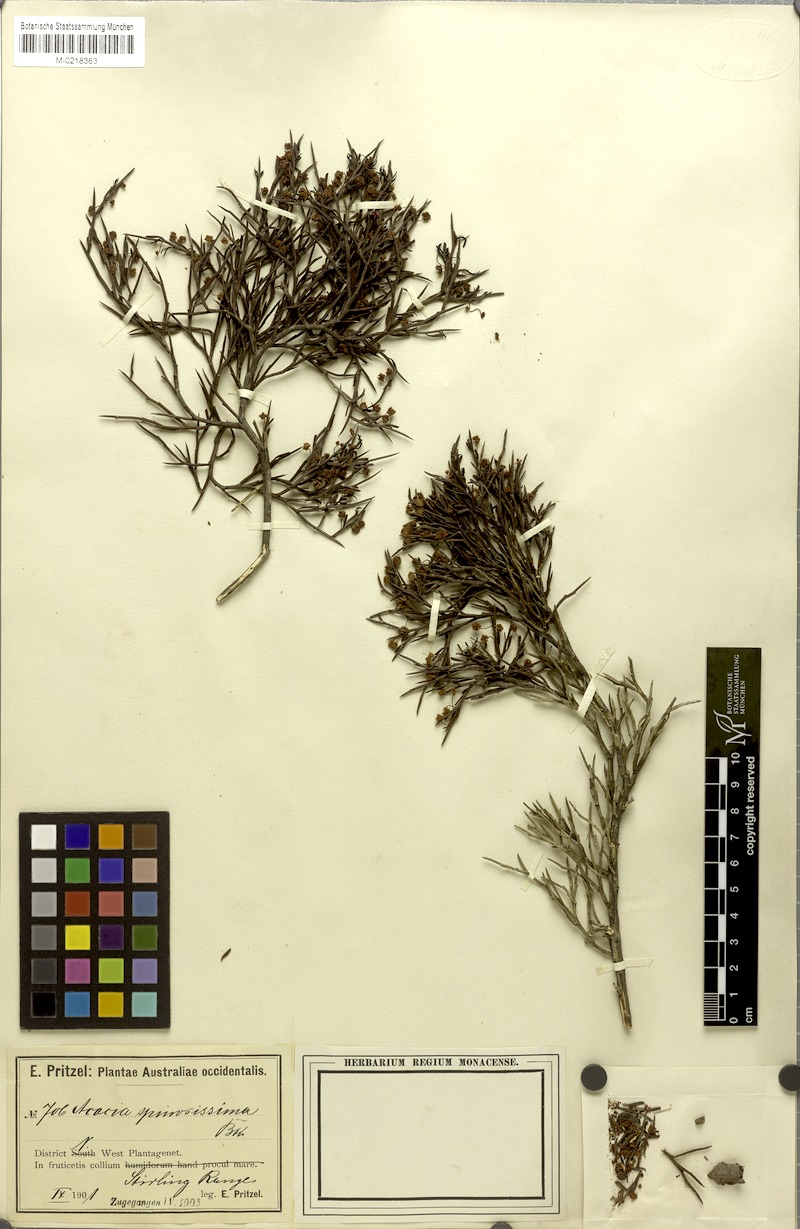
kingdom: Plantae
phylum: Tracheophyta
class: Magnoliopsida
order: Fabales
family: Fabaceae
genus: Acacia
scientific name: Acacia ferocior
